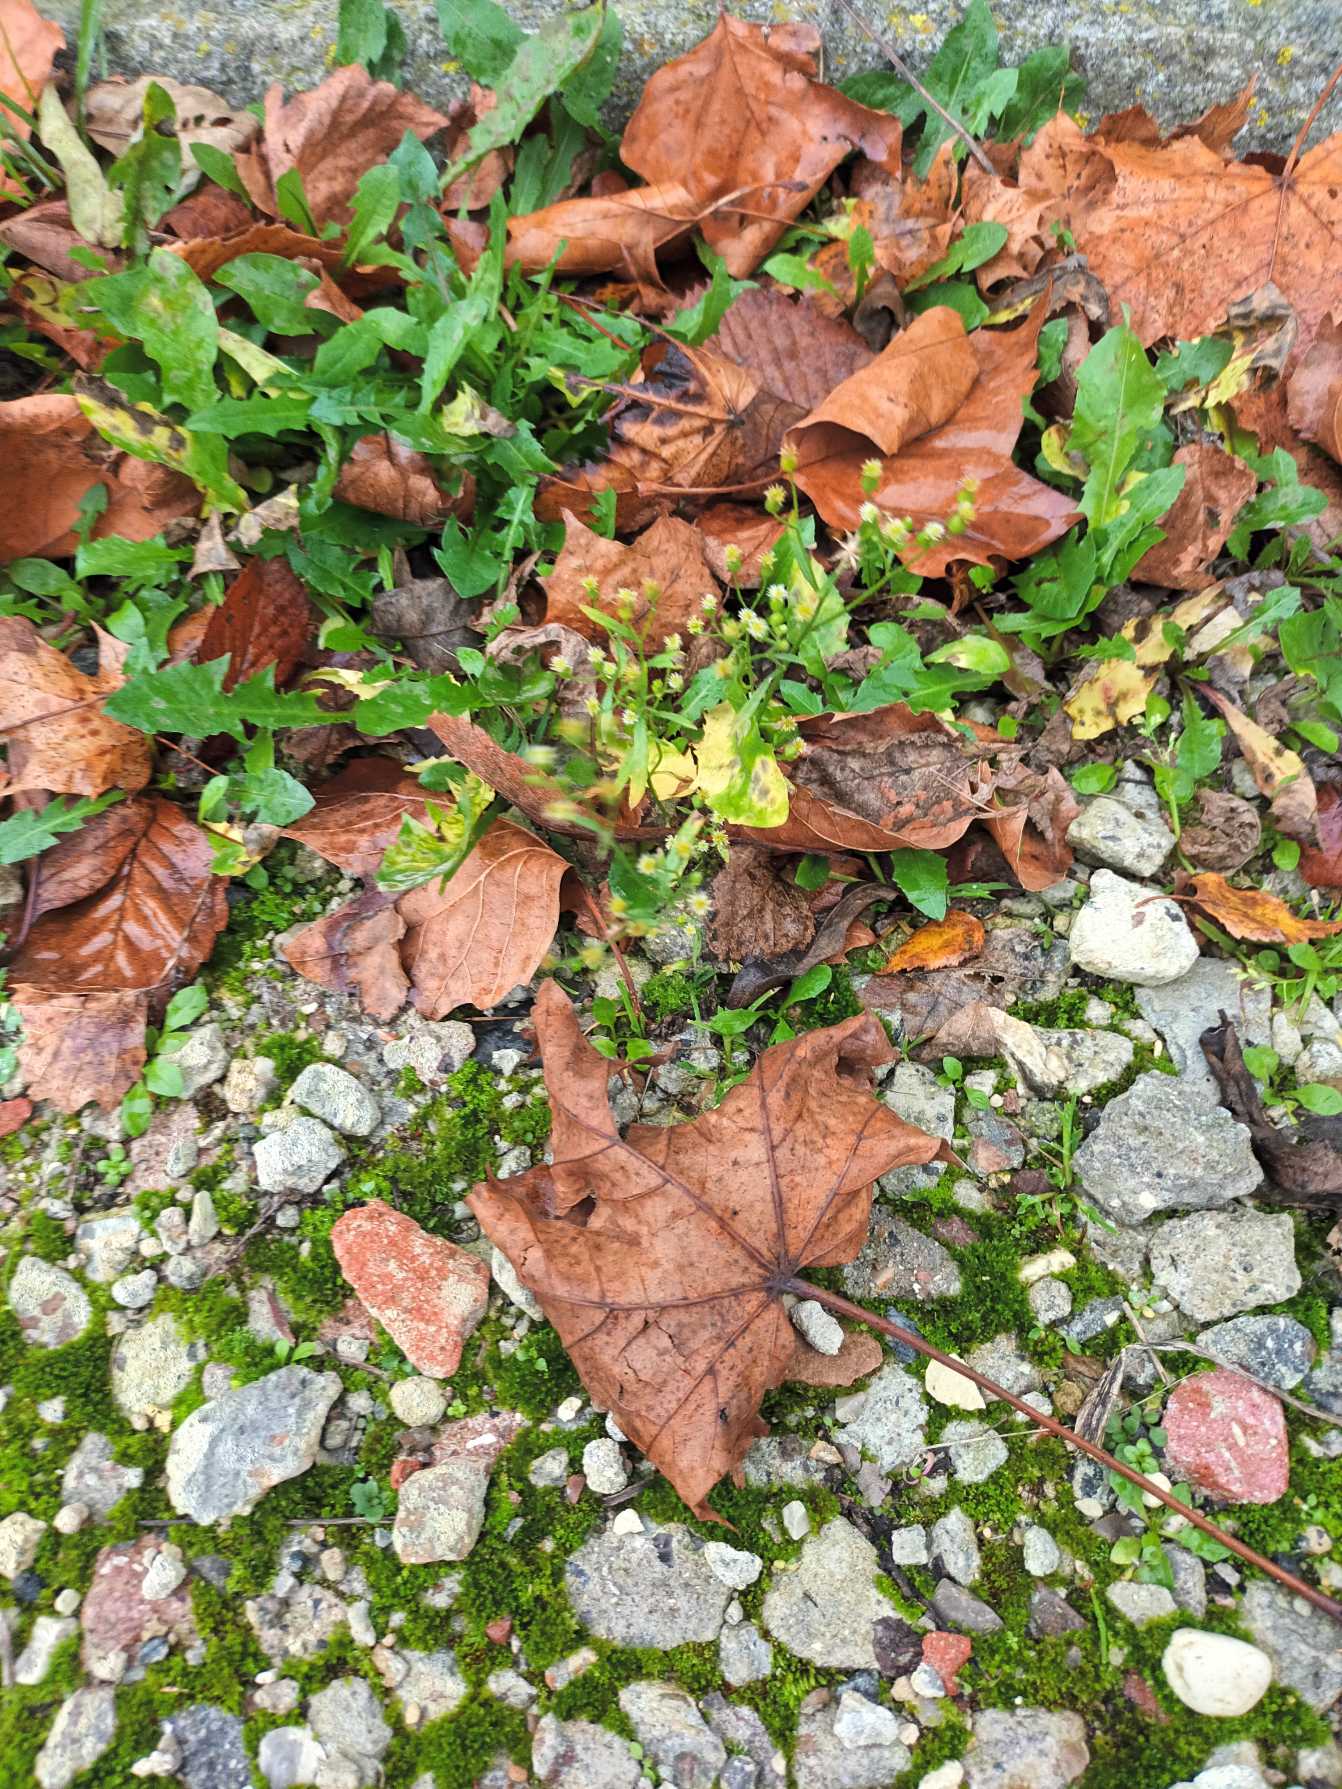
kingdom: Plantae
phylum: Tracheophyta
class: Magnoliopsida
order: Asterales
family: Asteraceae
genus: Erigeron
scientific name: Erigeron canadensis
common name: Kanadisk bakkestjerne
